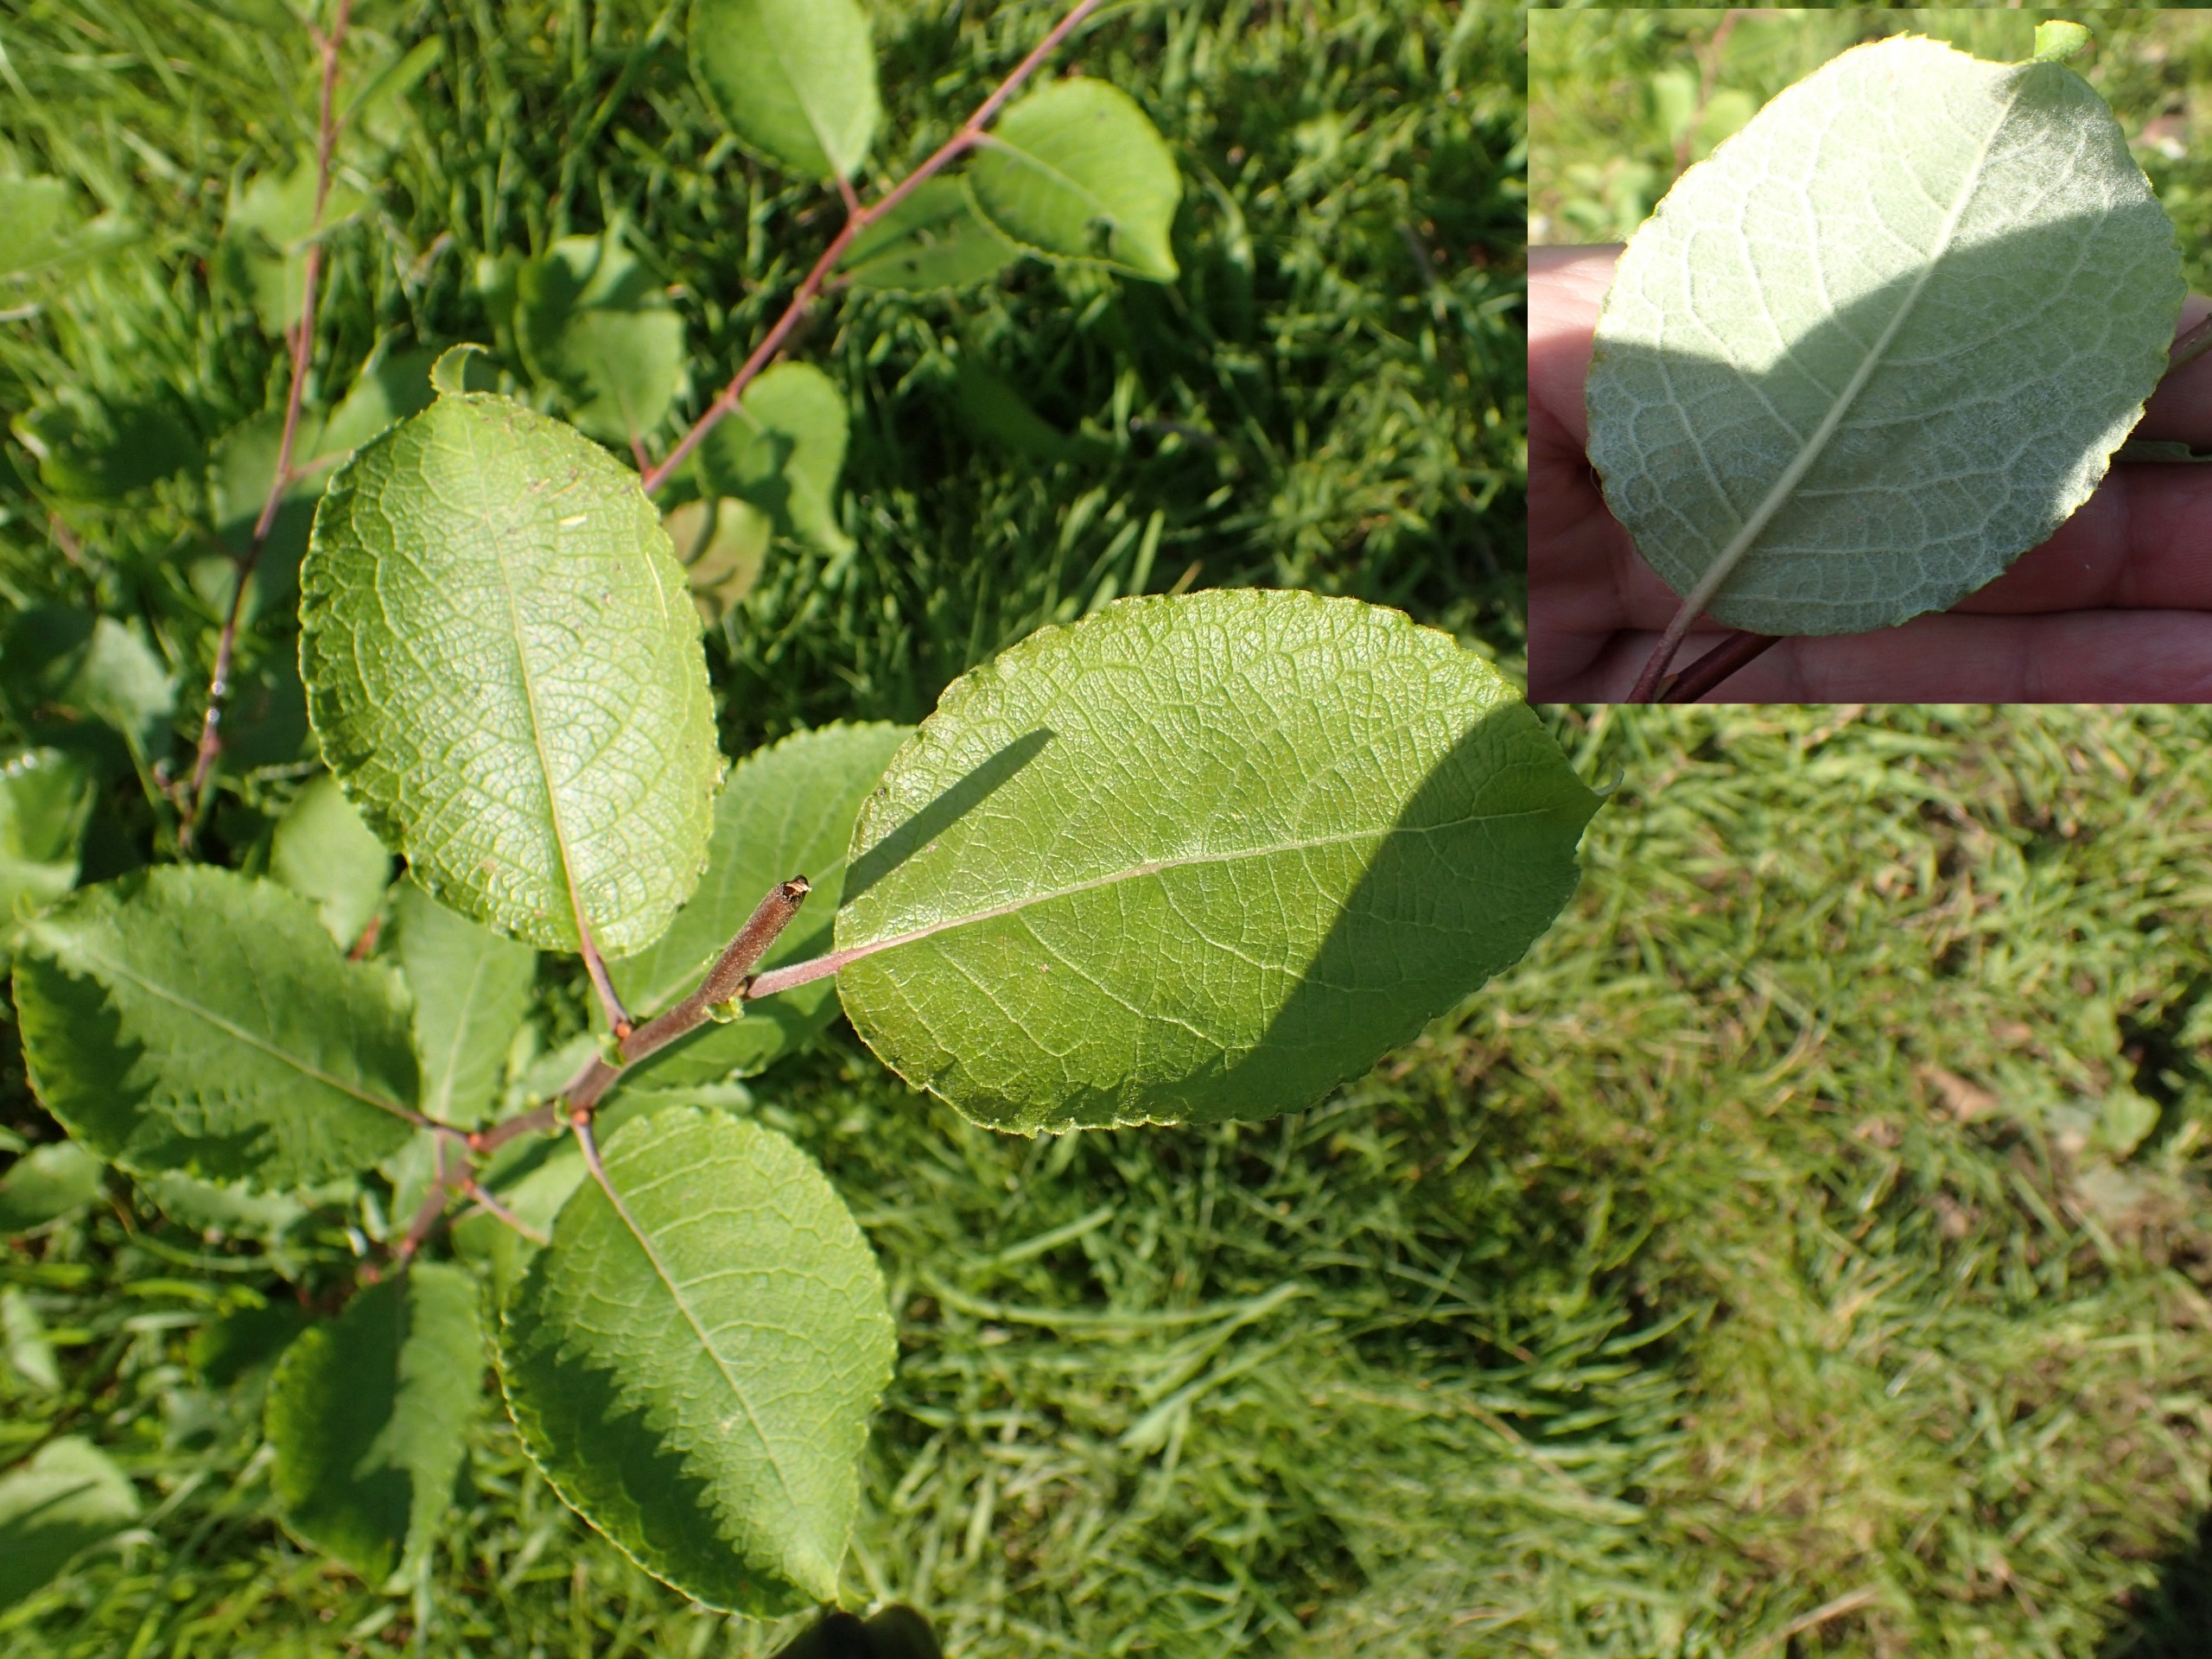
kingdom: Plantae
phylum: Tracheophyta
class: Magnoliopsida
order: Malpighiales
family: Salicaceae
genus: Salix
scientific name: Salix caprea
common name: Selje-pil
